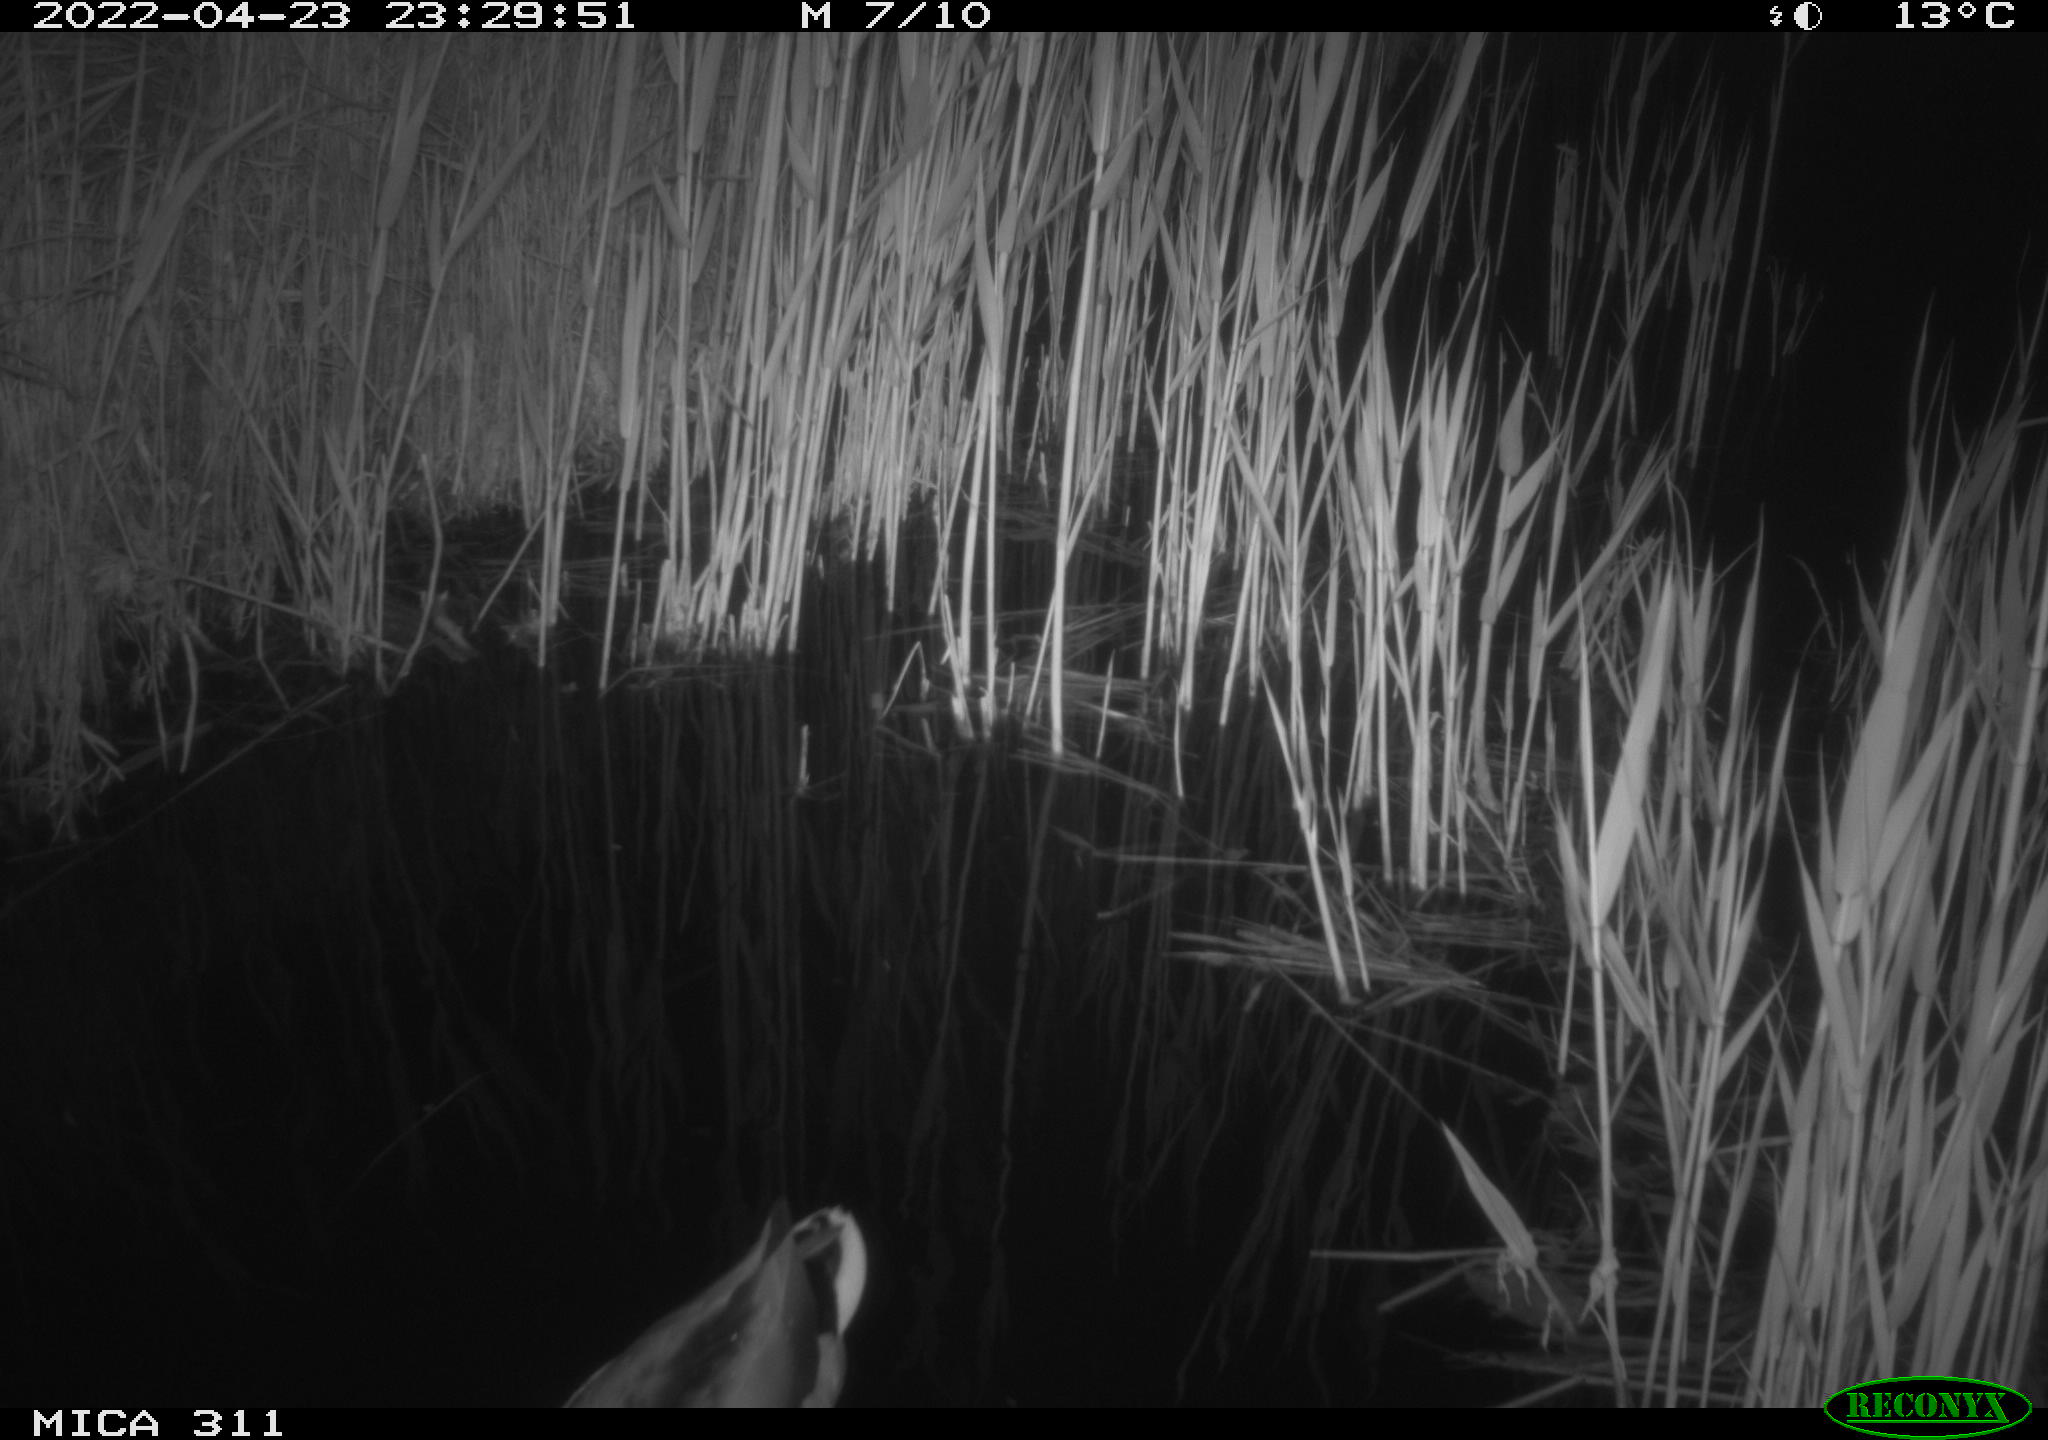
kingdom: Animalia
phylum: Chordata
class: Aves
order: Anseriformes
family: Anatidae
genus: Anas
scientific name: Anas
